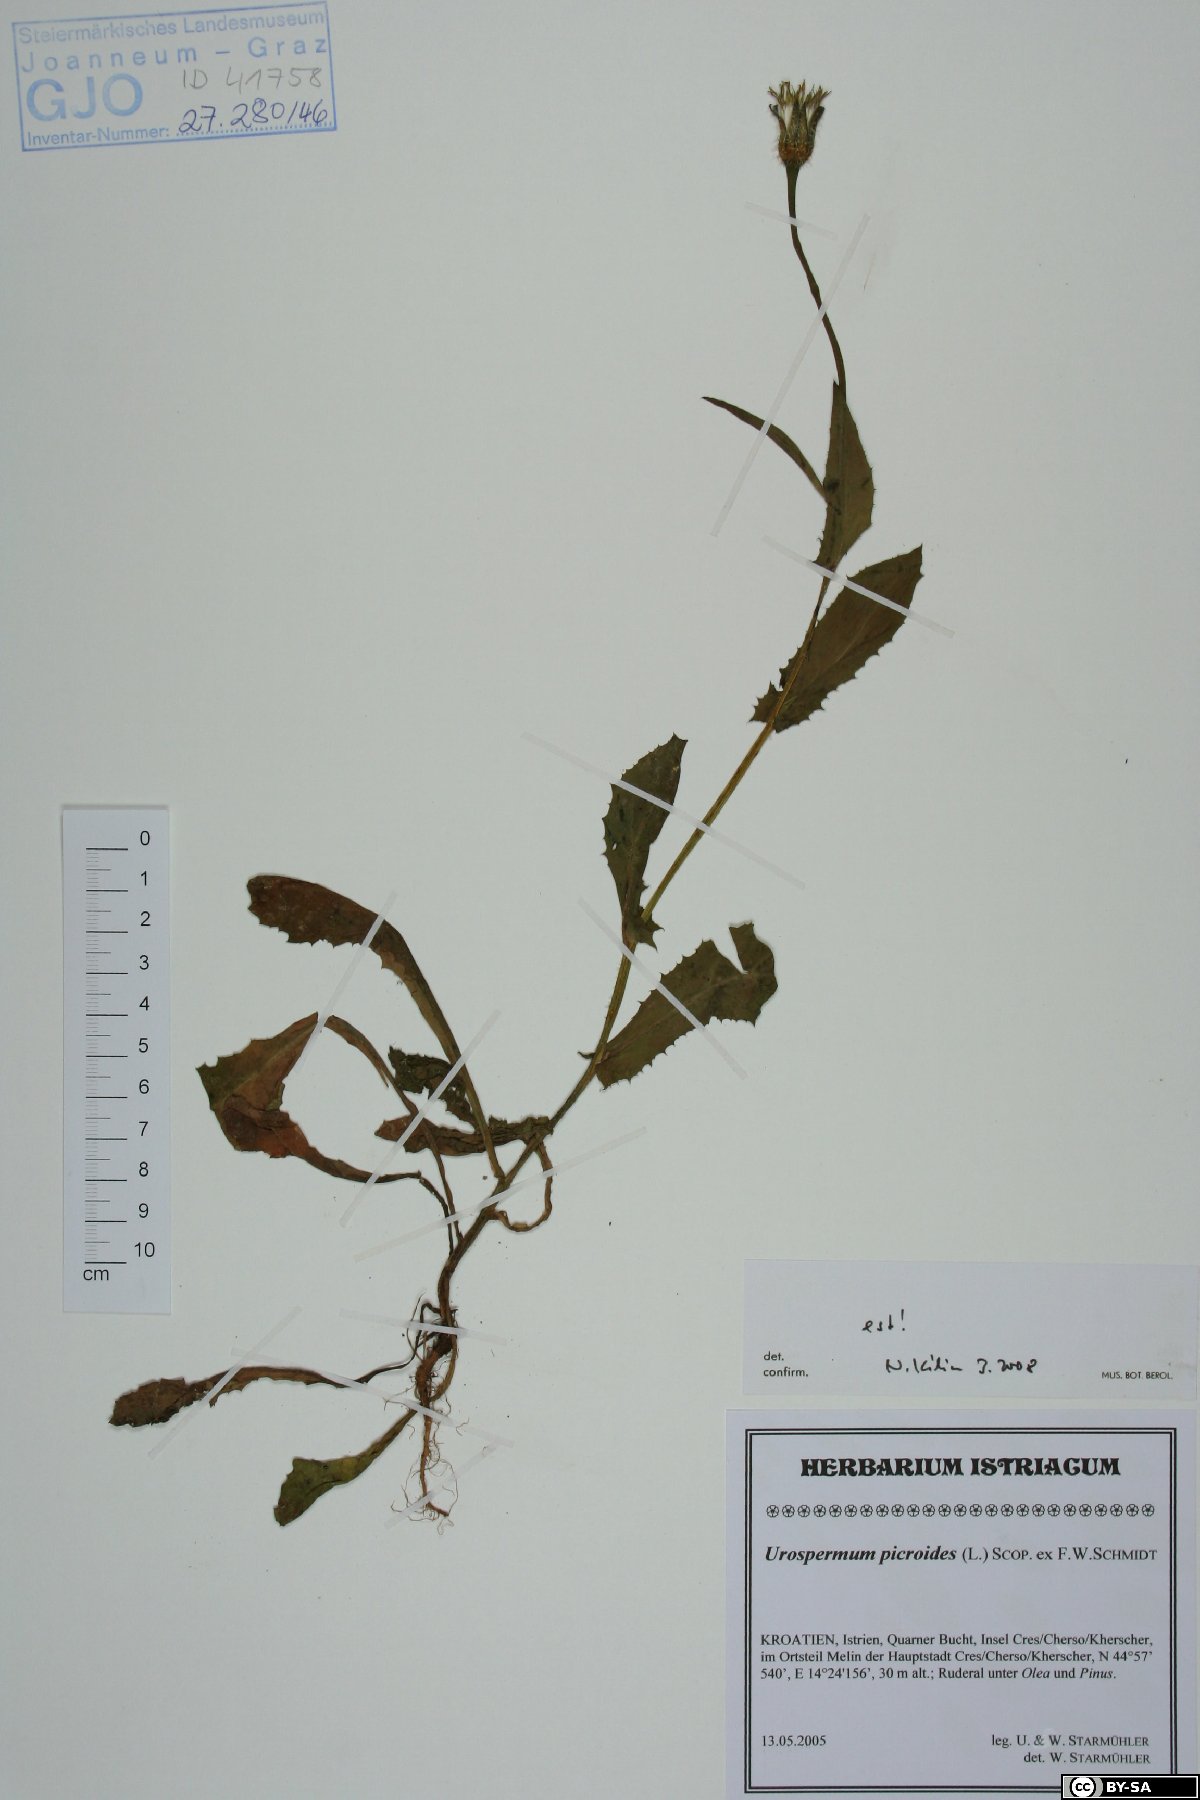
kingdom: Plantae
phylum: Tracheophyta
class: Magnoliopsida
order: Asterales
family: Asteraceae
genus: Urospermum
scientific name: Urospermum picroides
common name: False hawkbit
